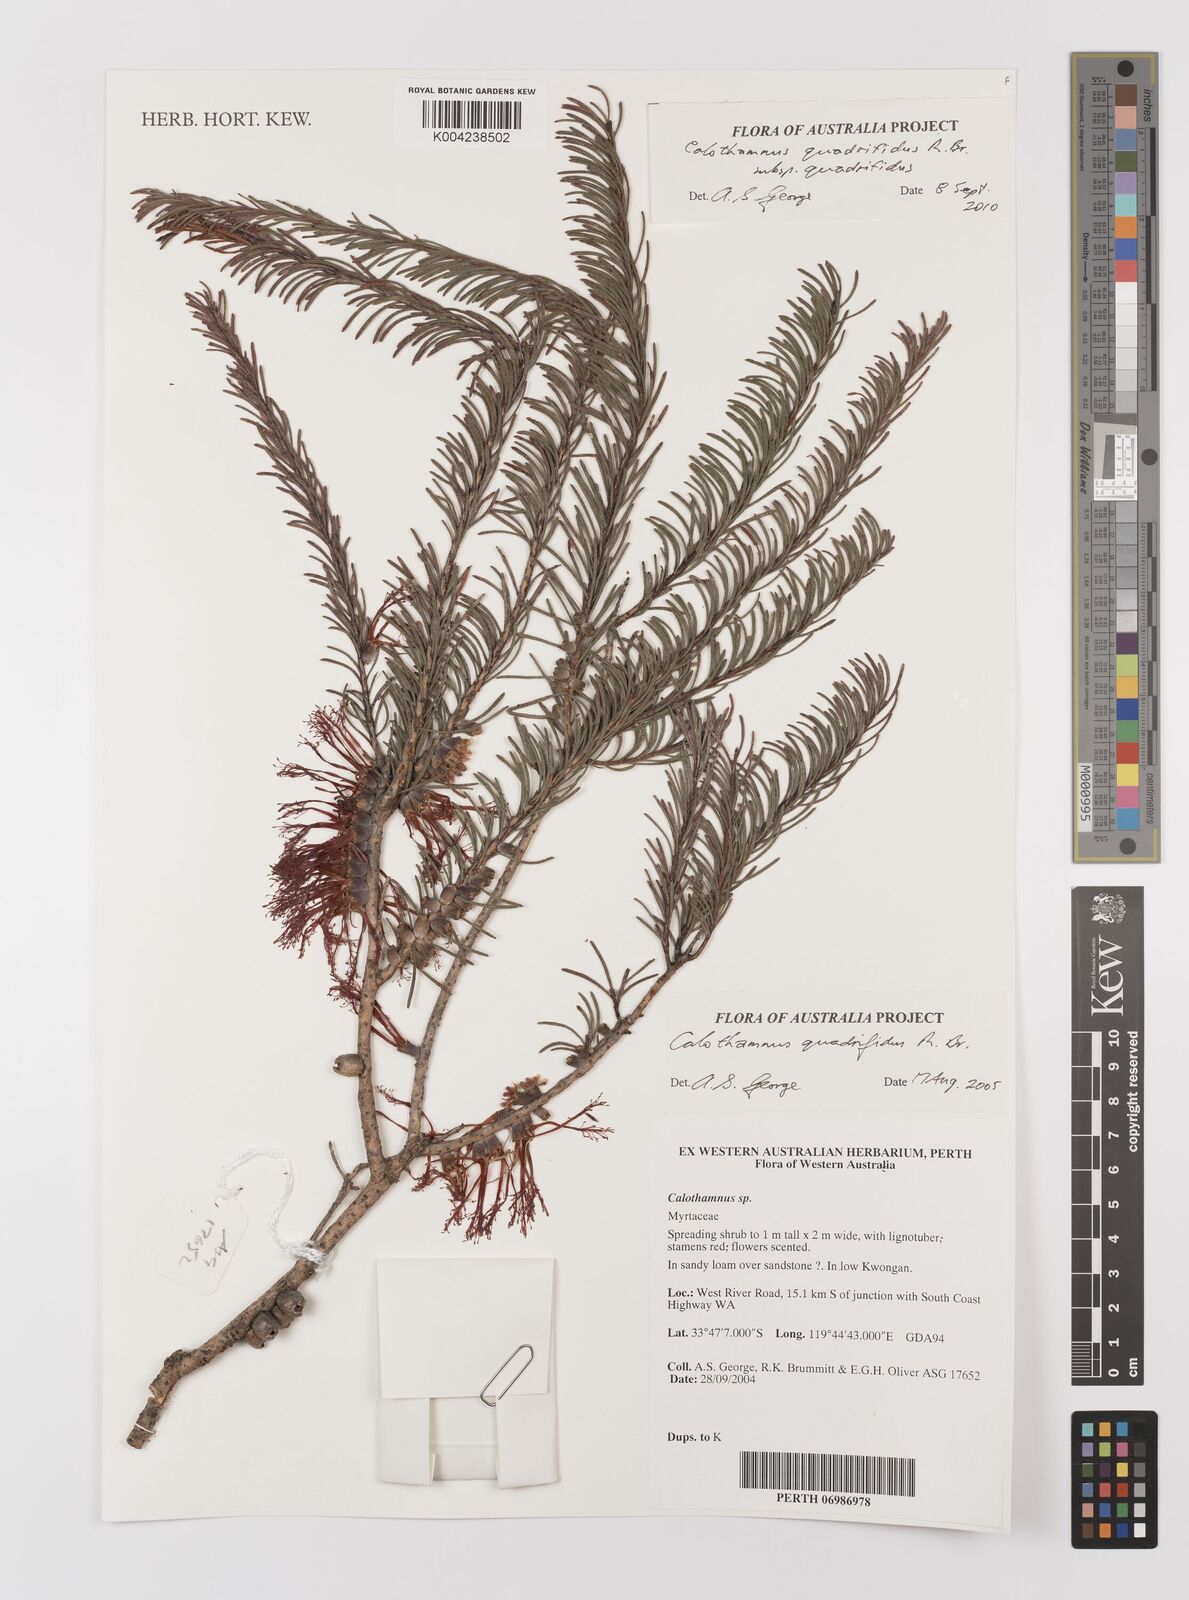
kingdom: Plantae
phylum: Tracheophyta
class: Magnoliopsida
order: Myrtales
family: Myrtaceae
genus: Melaleuca
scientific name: Melaleuca quadrifida
